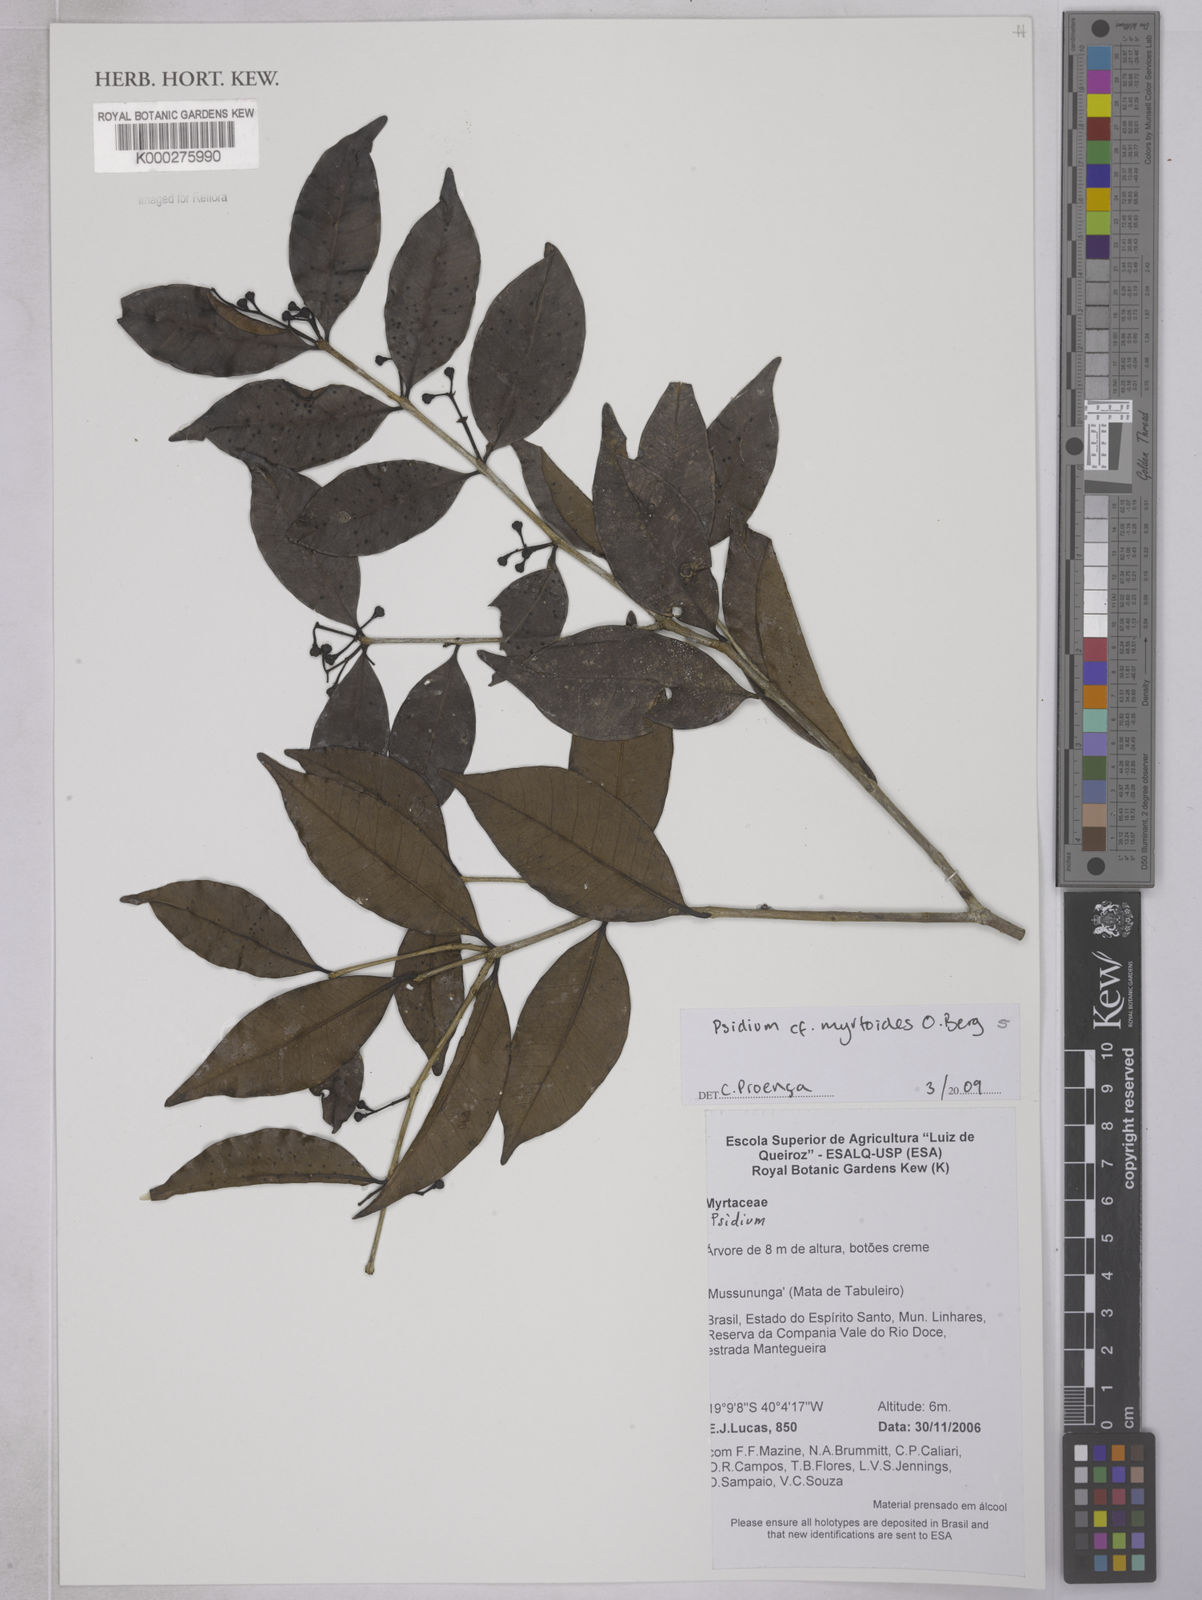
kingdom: Plantae
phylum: Tracheophyta
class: Magnoliopsida
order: Myrtales
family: Myrtaceae
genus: Psidium
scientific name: Psidium myrtoides
